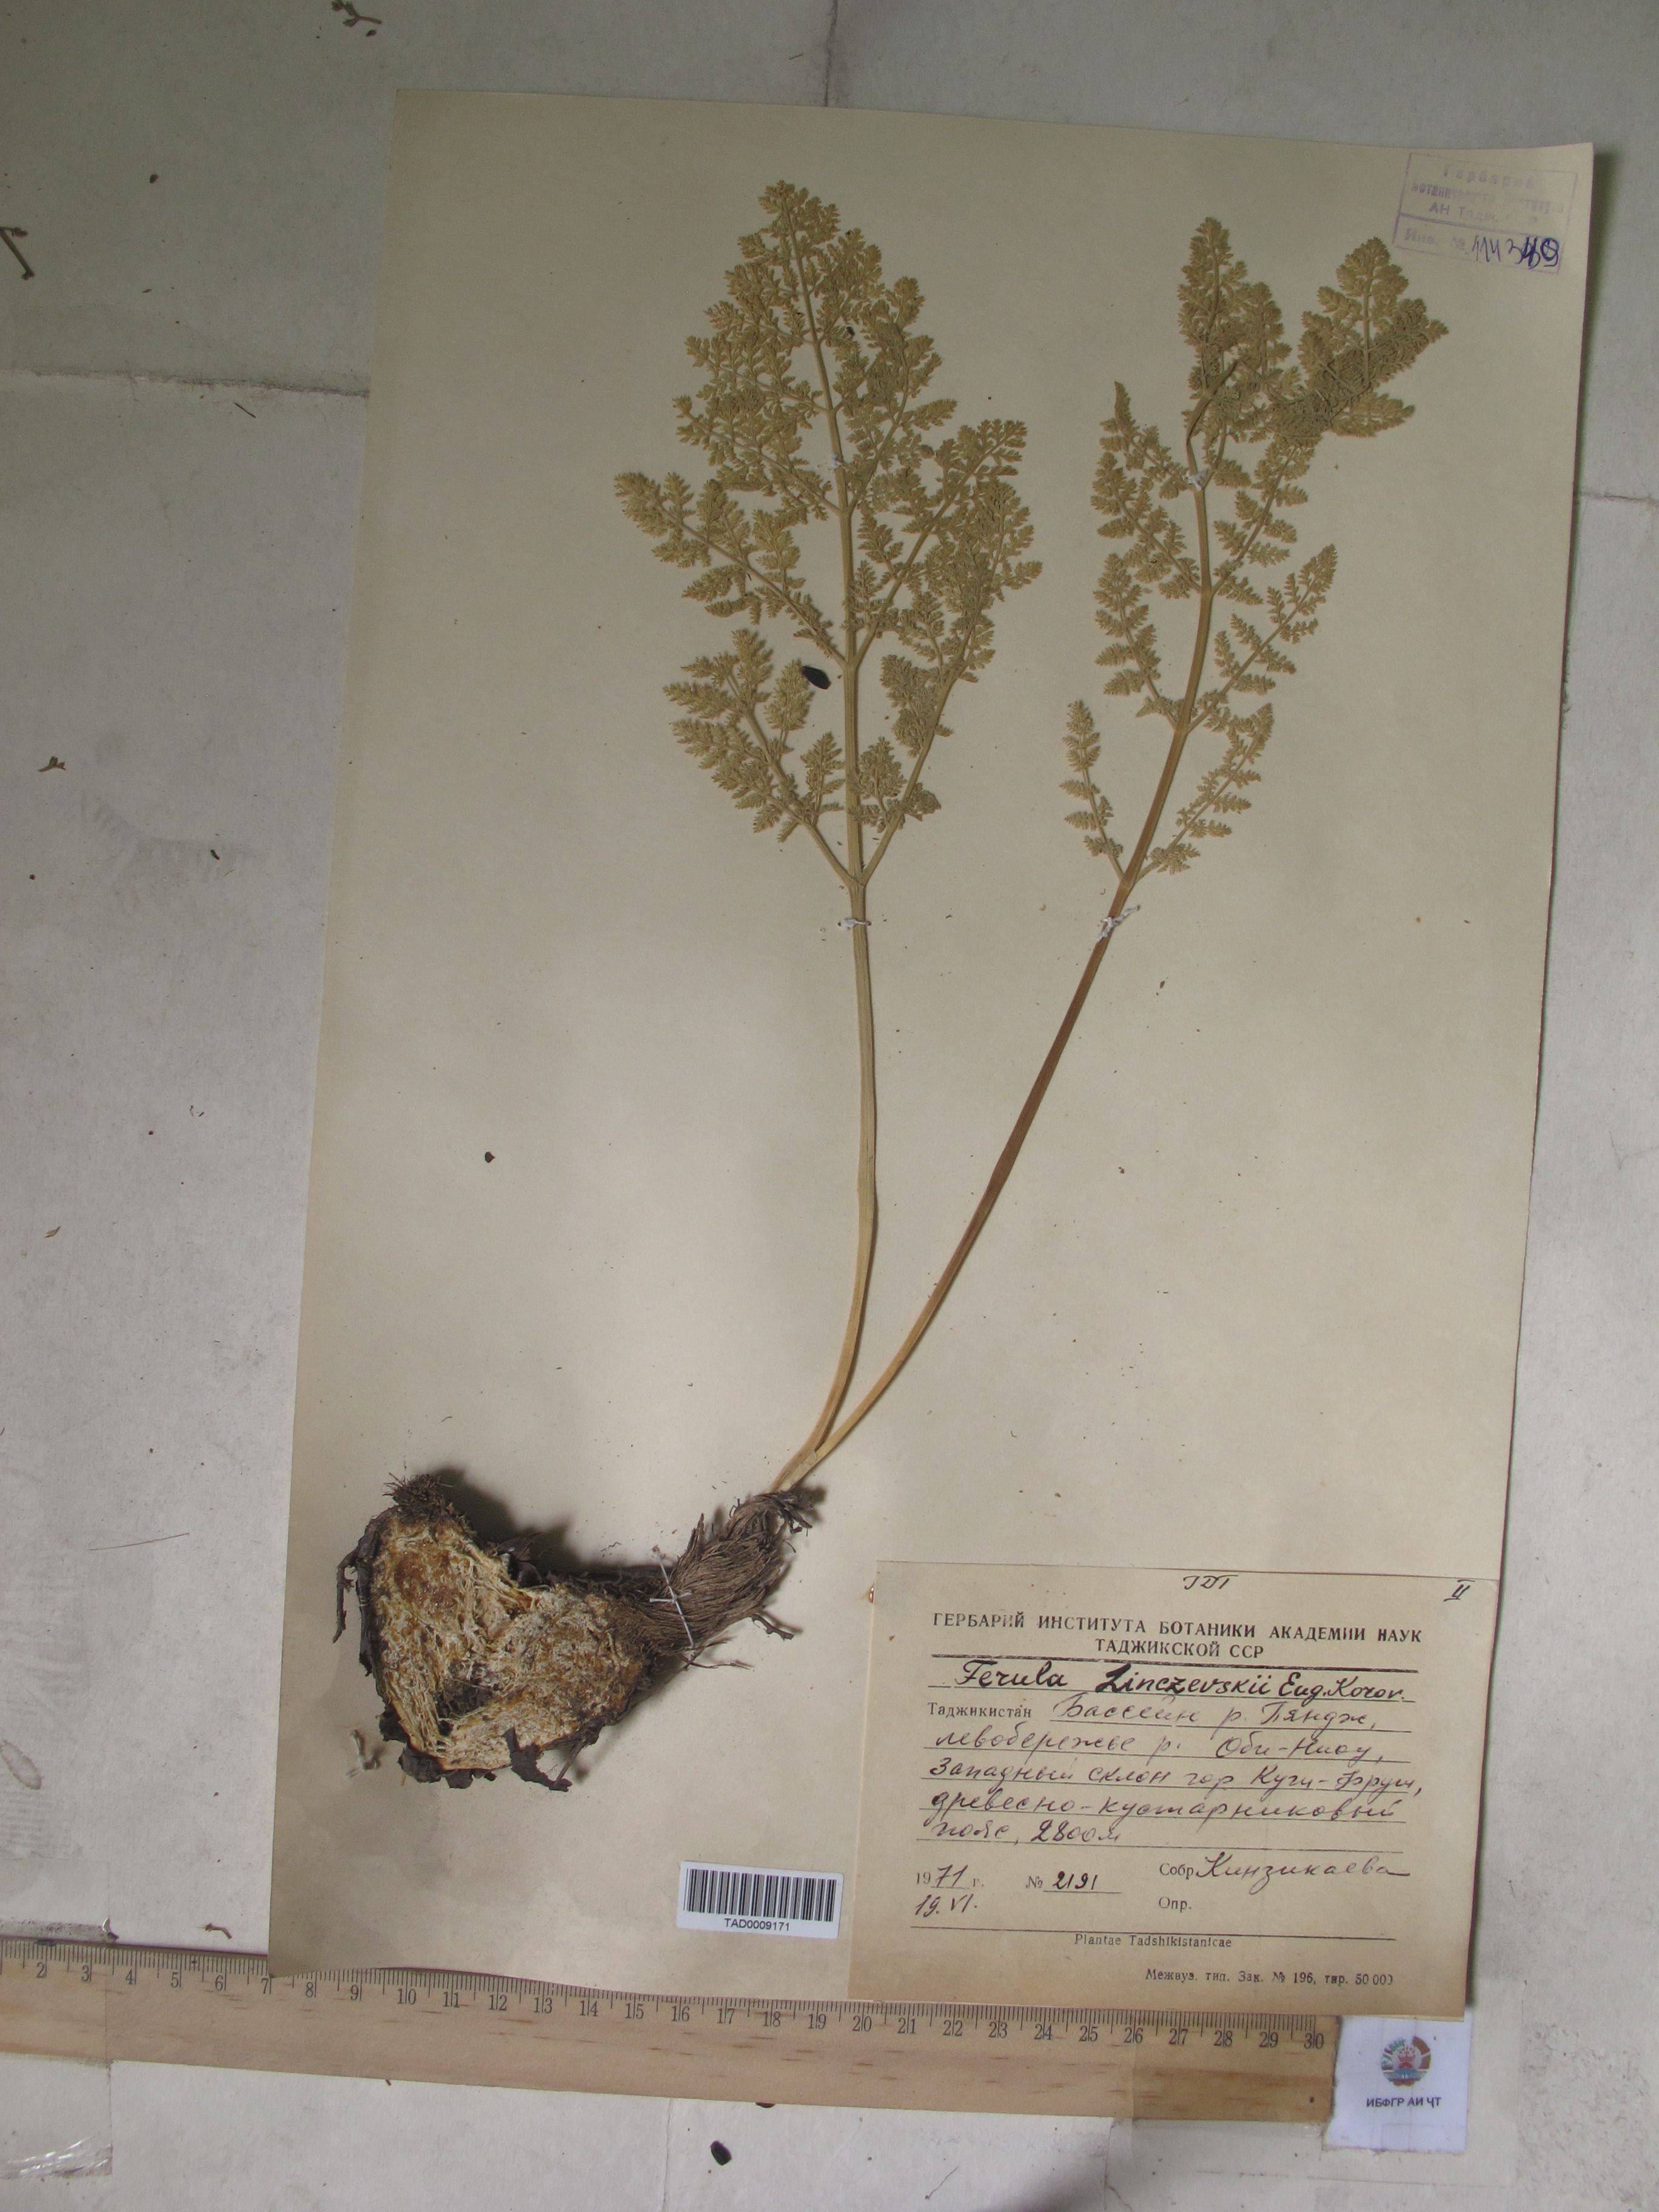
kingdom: Plantae
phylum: Tracheophyta
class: Magnoliopsida
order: Apiales
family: Apiaceae
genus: Ferula
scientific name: Ferula linczevskii
